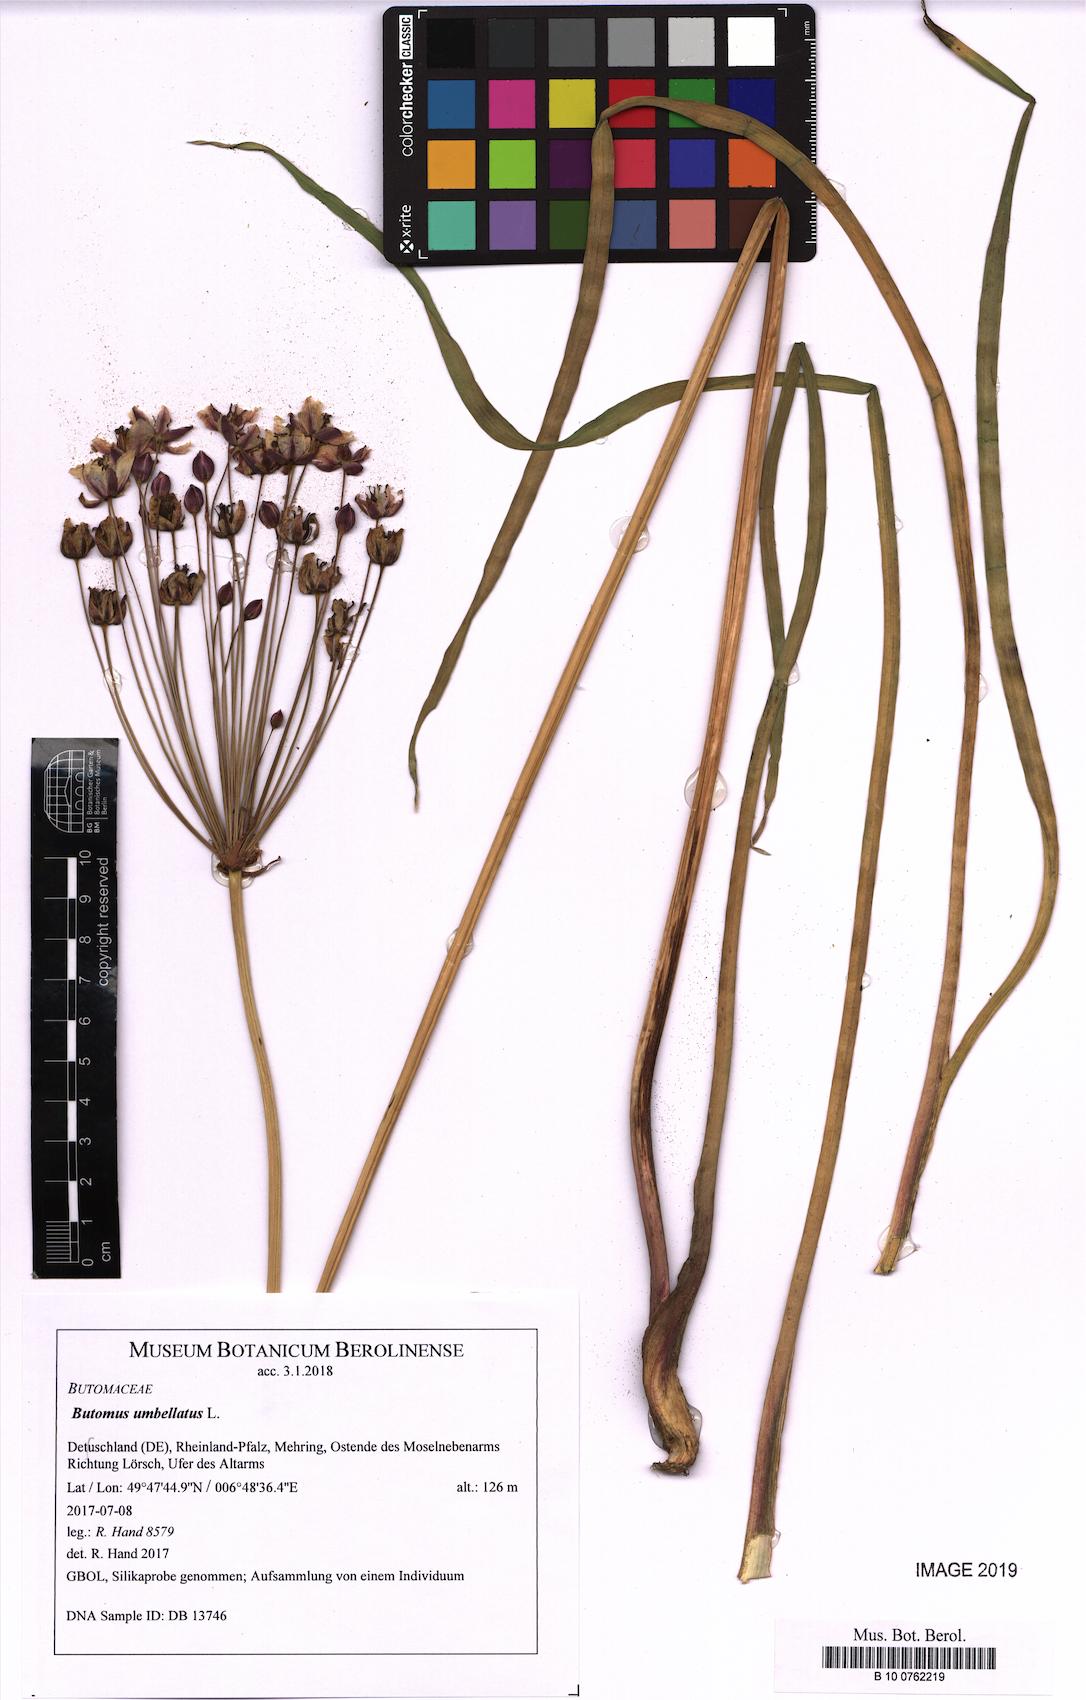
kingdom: Plantae
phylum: Tracheophyta
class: Liliopsida
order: Alismatales
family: Butomaceae
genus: Butomus
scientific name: Butomus umbellatus
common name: Flowering-rush
